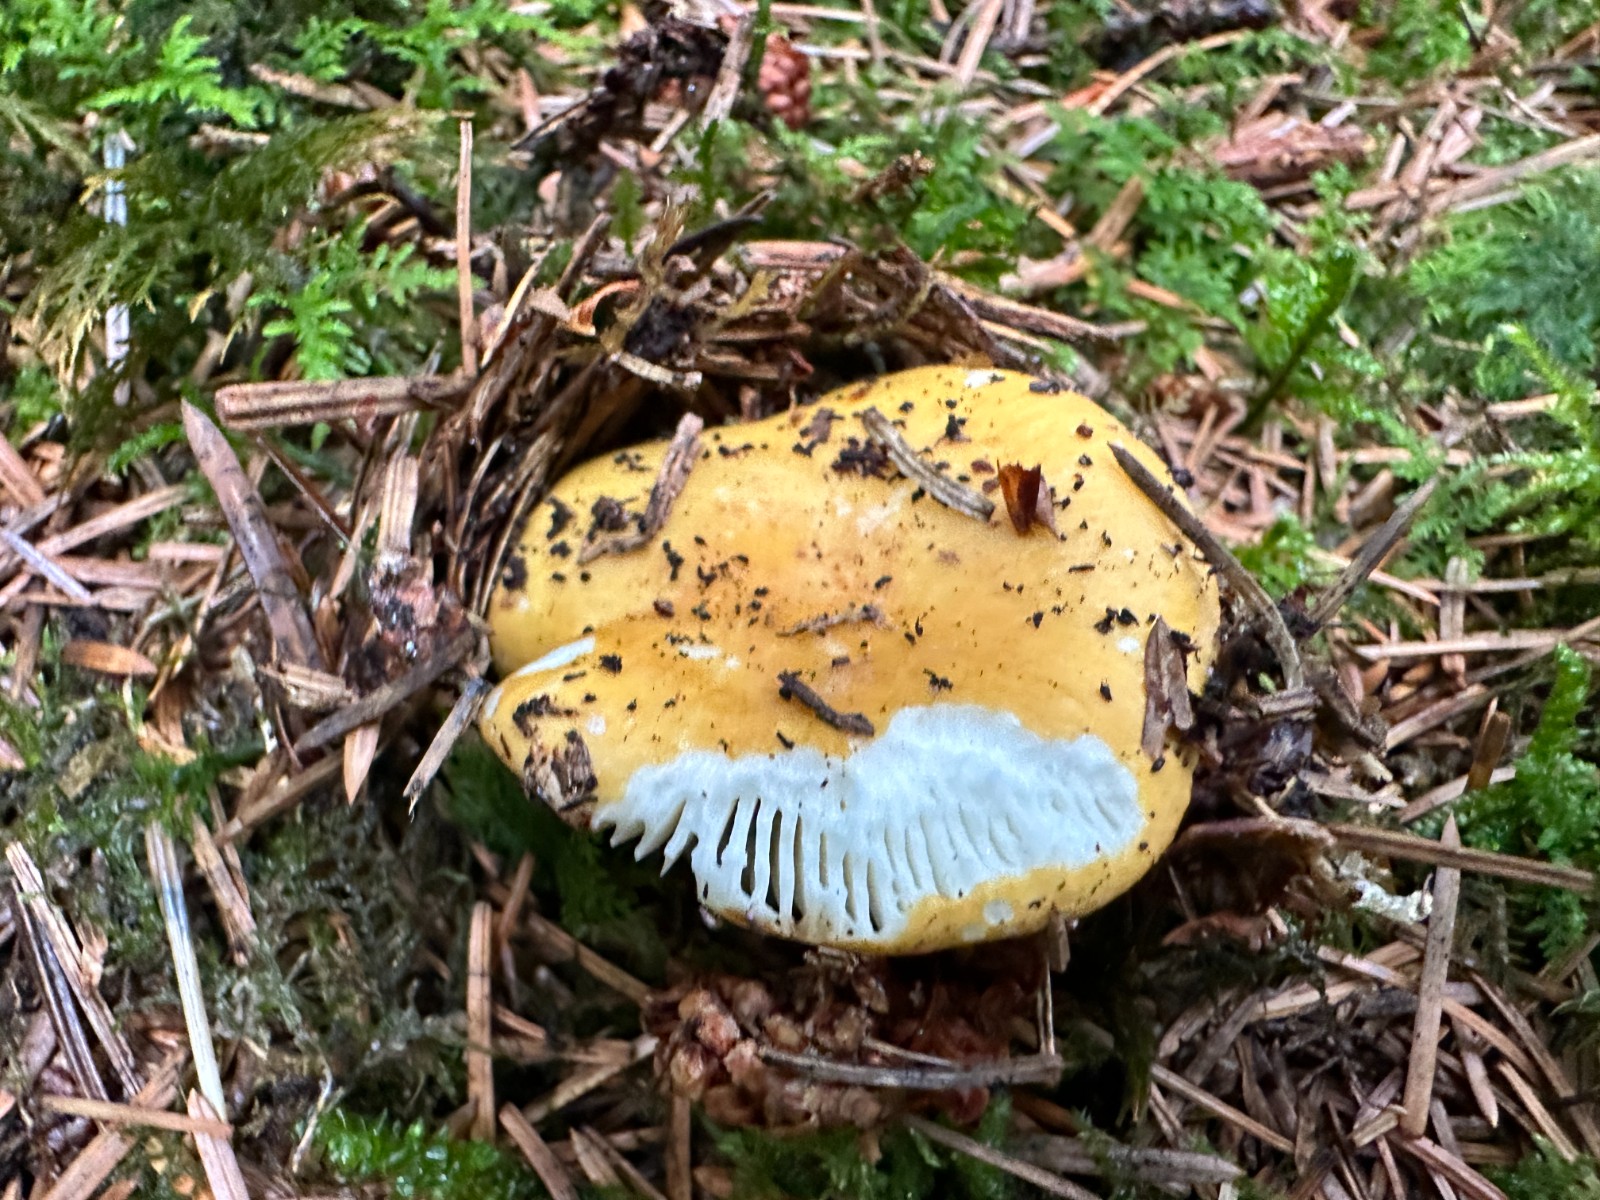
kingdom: Fungi
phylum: Basidiomycota
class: Agaricomycetes
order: Russulales
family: Russulaceae
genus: Russula
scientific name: Russula ochroleuca
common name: okkergul skørhat
